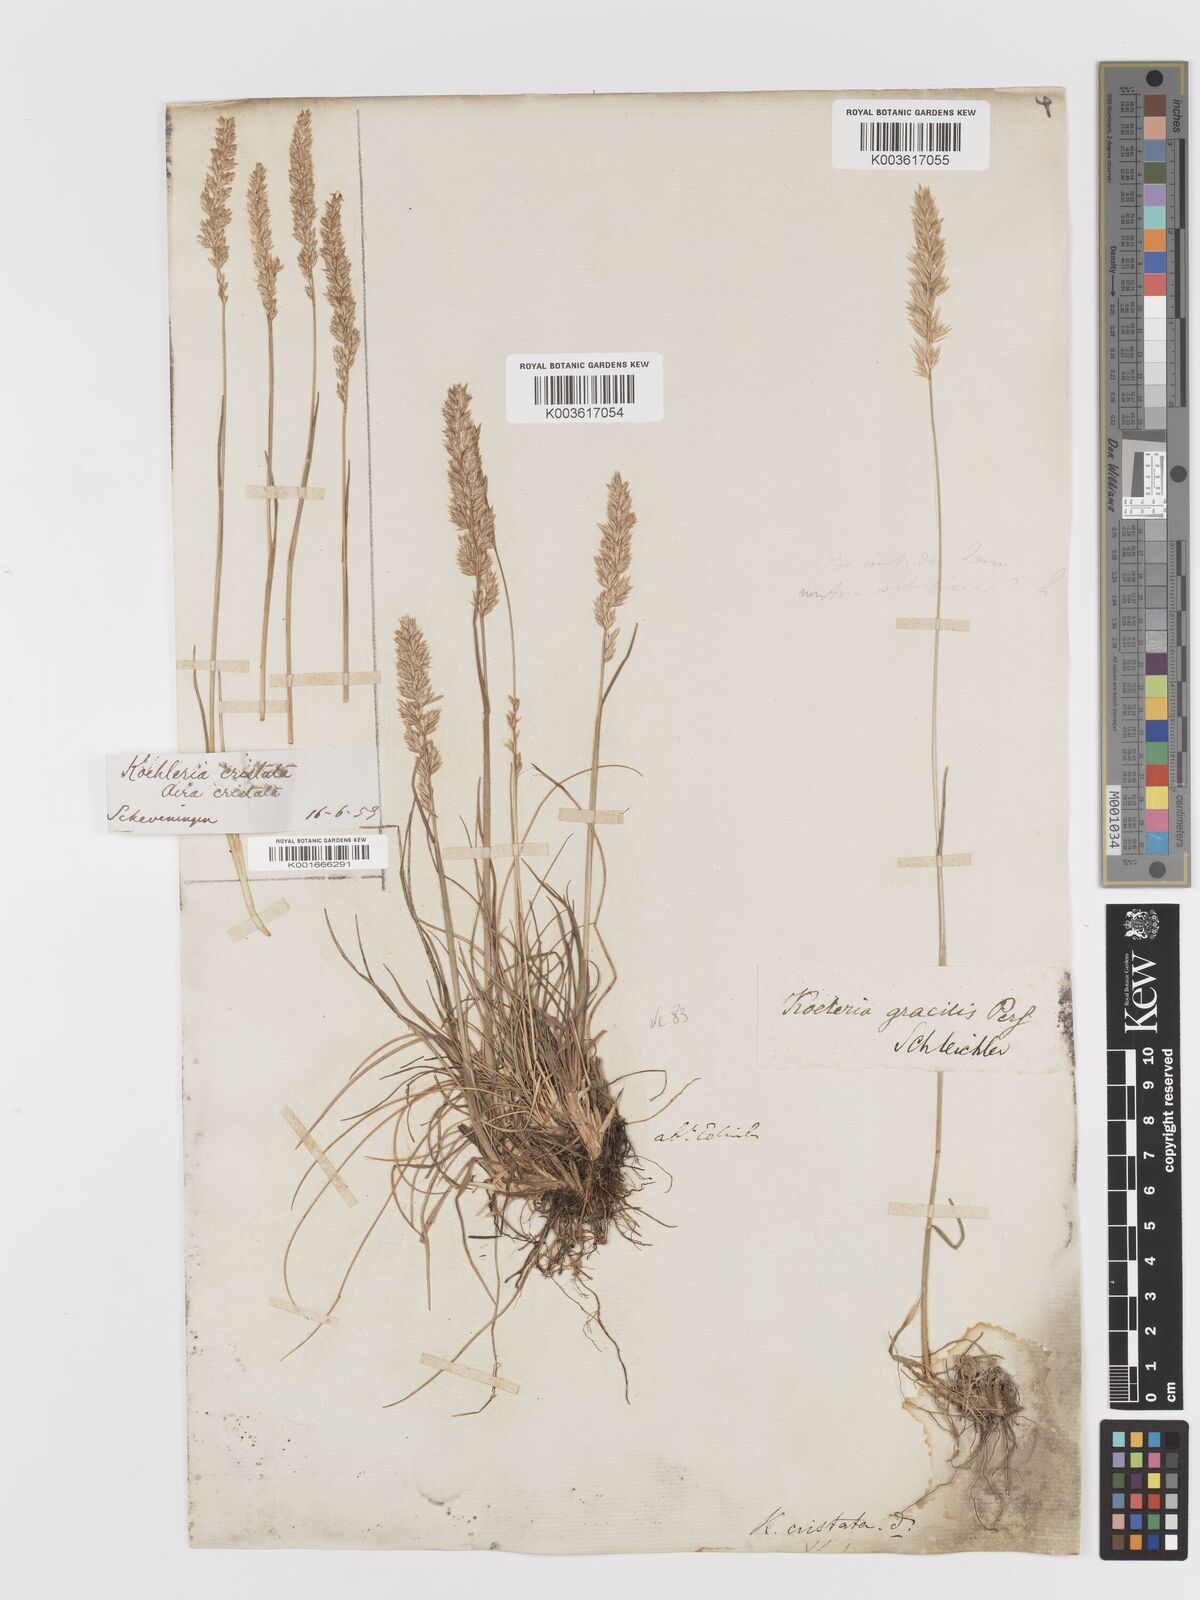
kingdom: Plantae
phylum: Tracheophyta
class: Liliopsida
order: Poales
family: Poaceae
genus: Koeleria
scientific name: Koeleria macrantha
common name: Crested hair-grass
